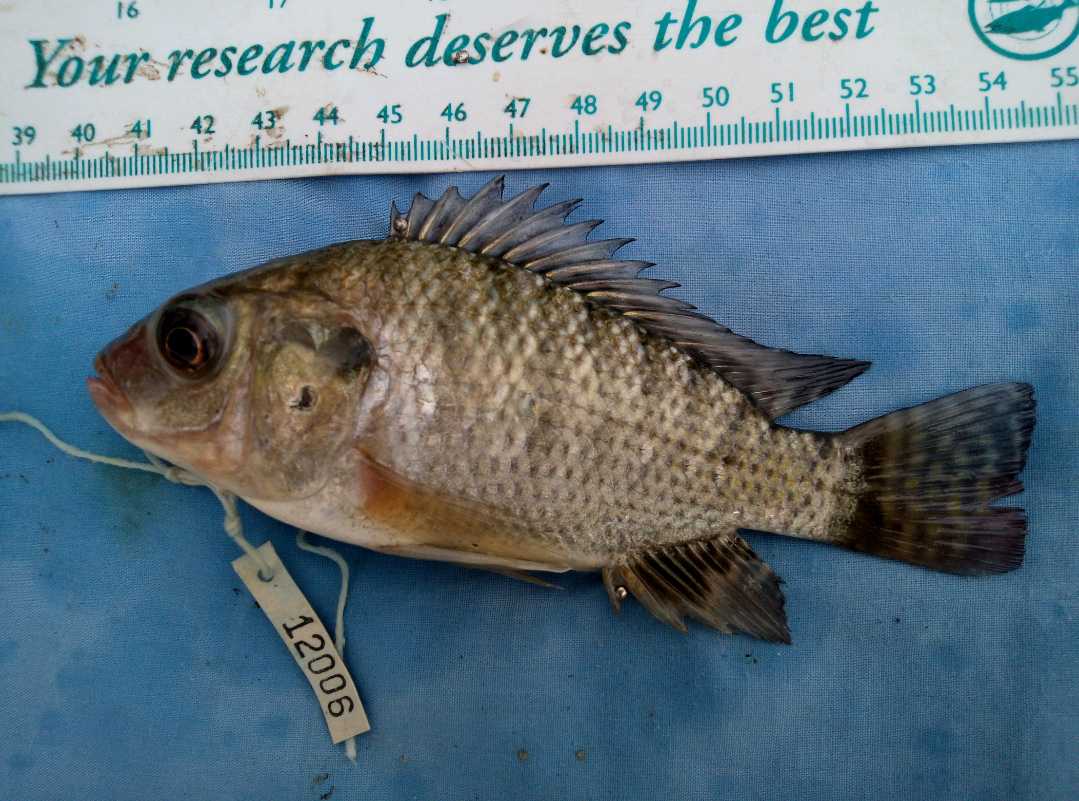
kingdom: Animalia
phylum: Chordata
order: Perciformes
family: Cichlidae
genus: Oreochromis
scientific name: Oreochromis niloticus
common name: Nile tilapia
